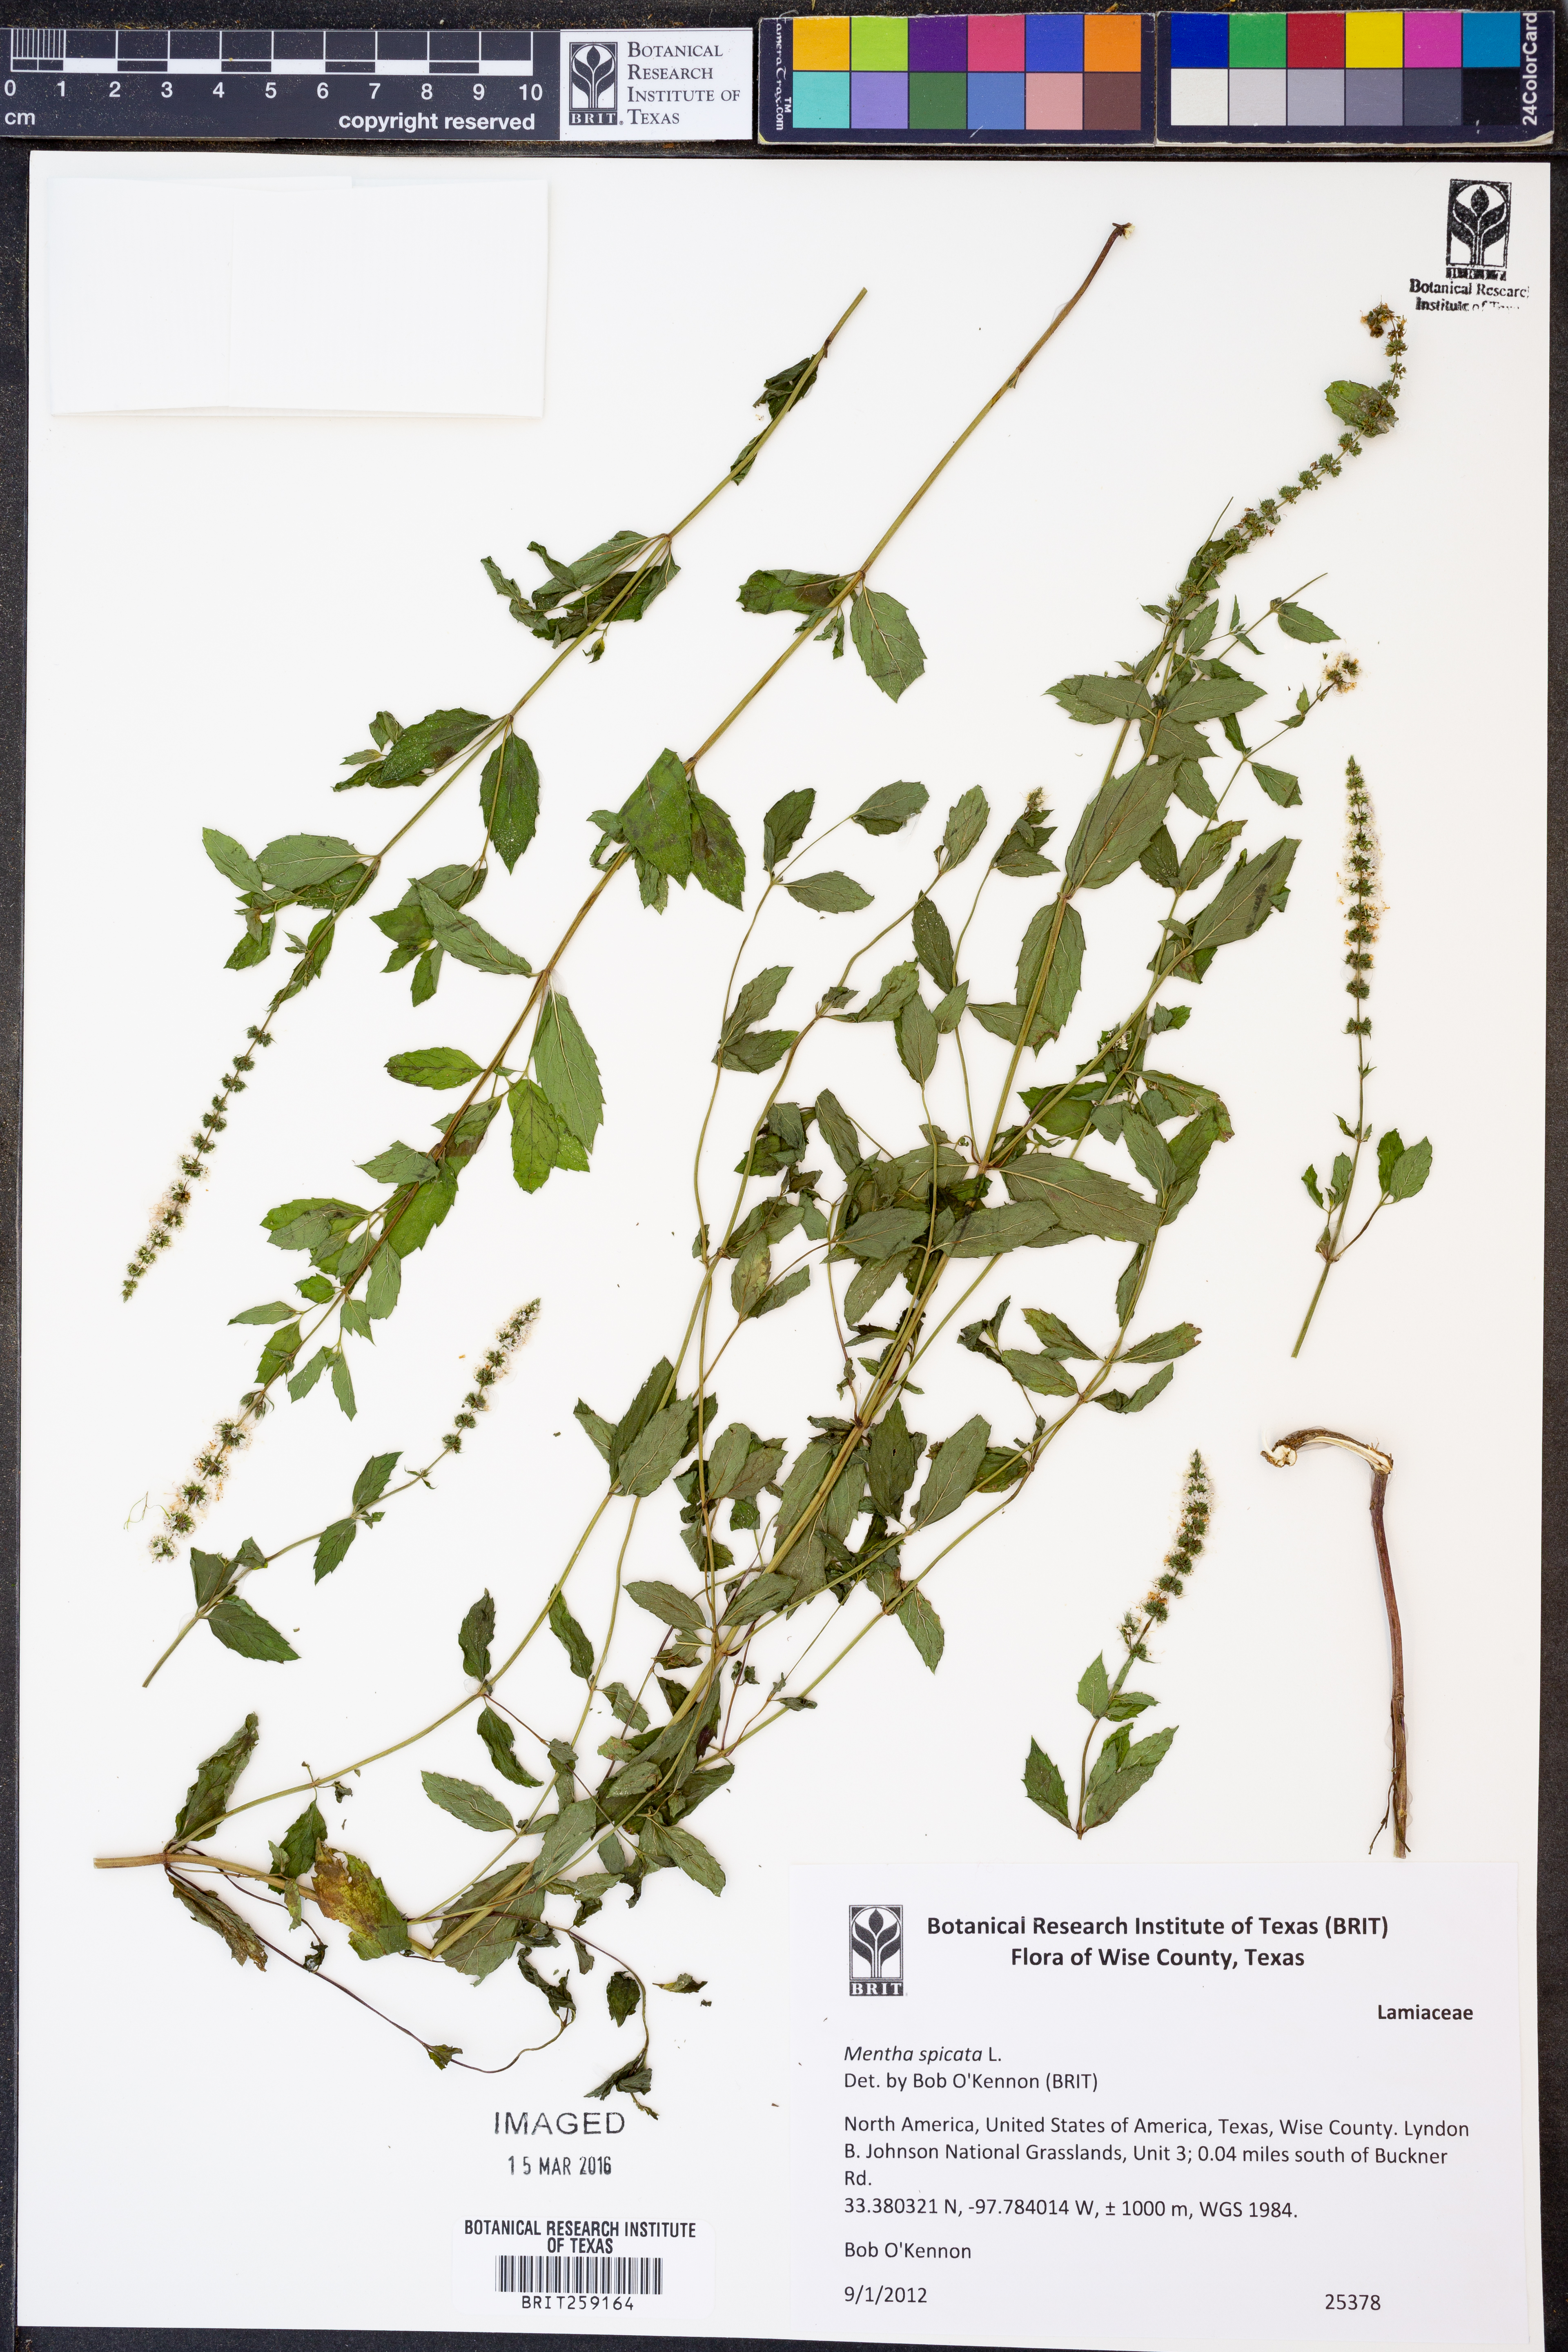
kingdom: Plantae
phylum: Tracheophyta
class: Magnoliopsida
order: Lamiales
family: Lamiaceae
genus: Mentha
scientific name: Mentha spicata
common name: Spearmint
